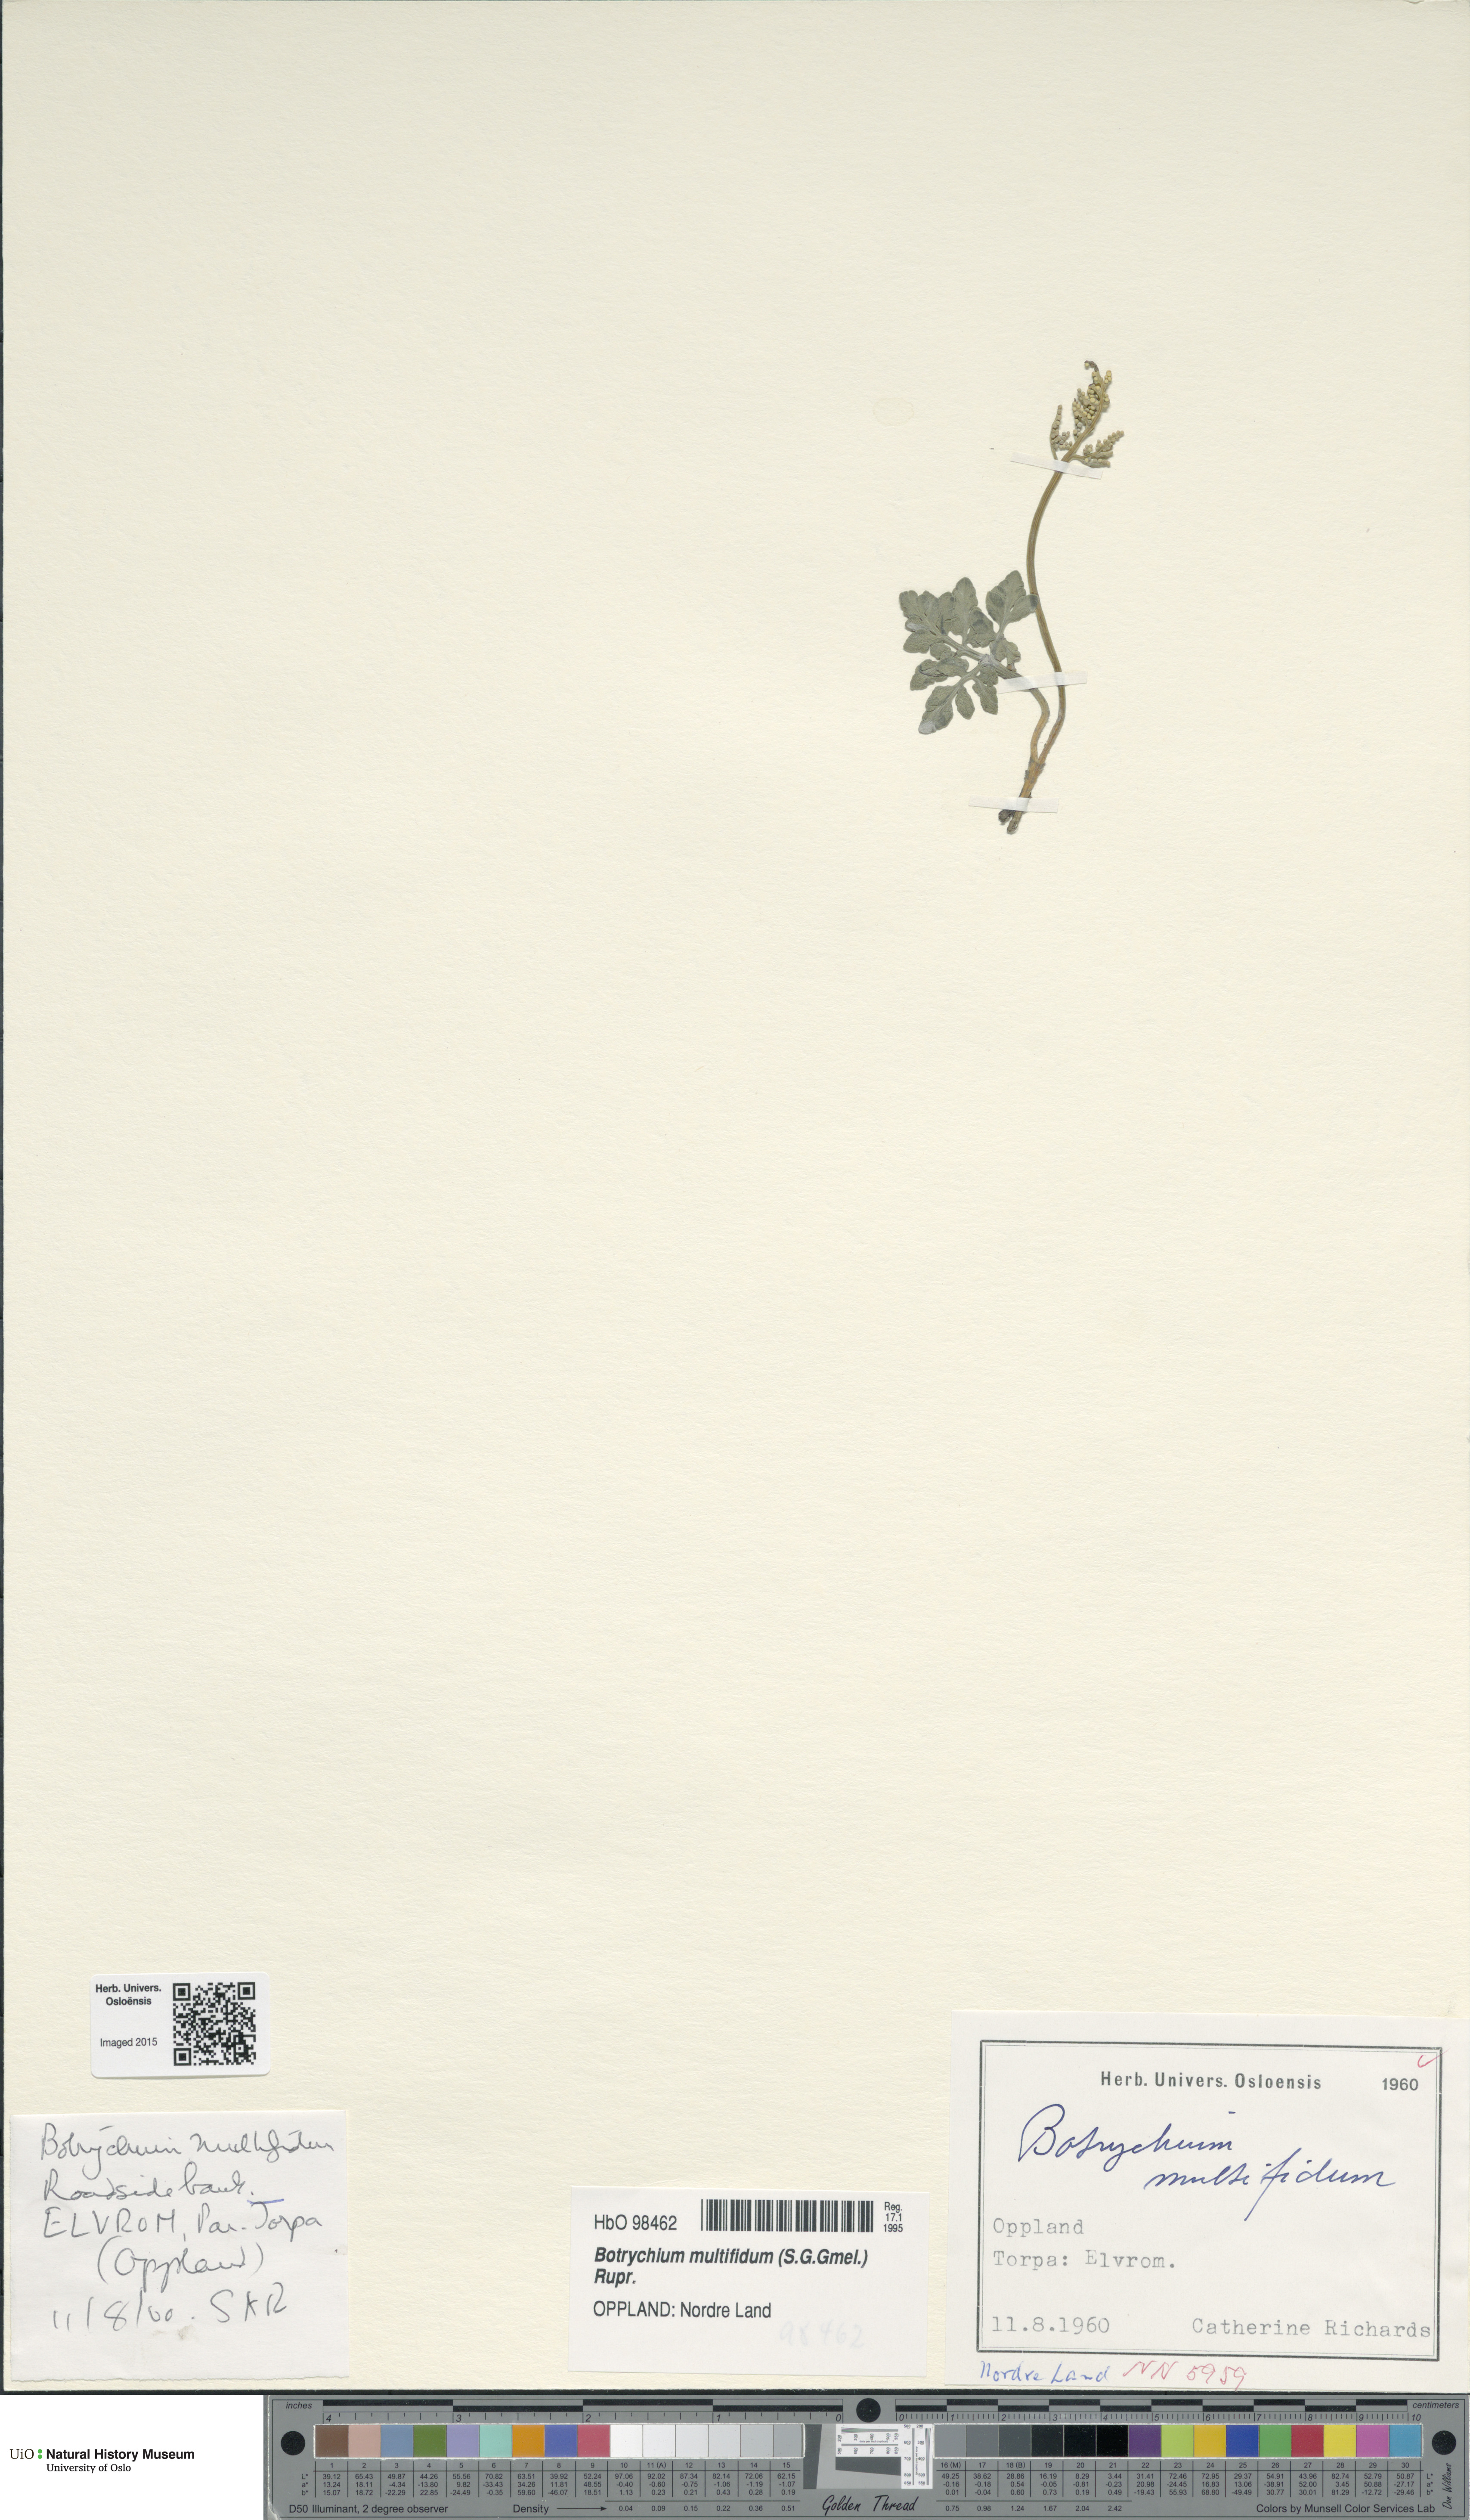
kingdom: Plantae
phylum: Tracheophyta
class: Polypodiopsida
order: Ophioglossales
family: Ophioglossaceae
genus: Sceptridium
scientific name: Sceptridium multifidum
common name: Leathery grape fern
